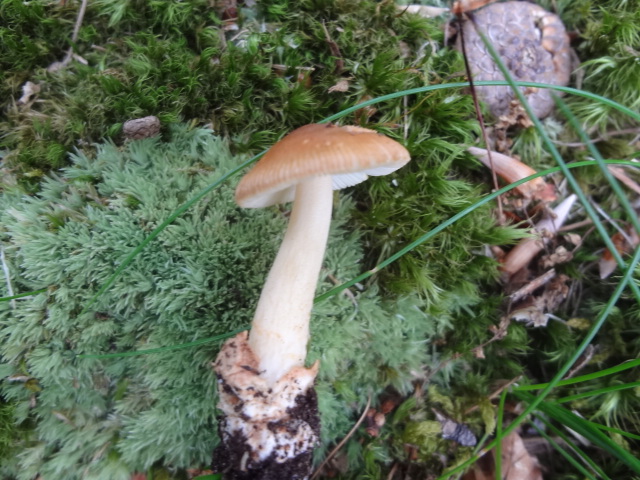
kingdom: Fungi
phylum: Basidiomycota
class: Agaricomycetes
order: Agaricales
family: Amanitaceae
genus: Amanita
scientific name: Amanita fulva
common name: brun kam-fluesvamp
